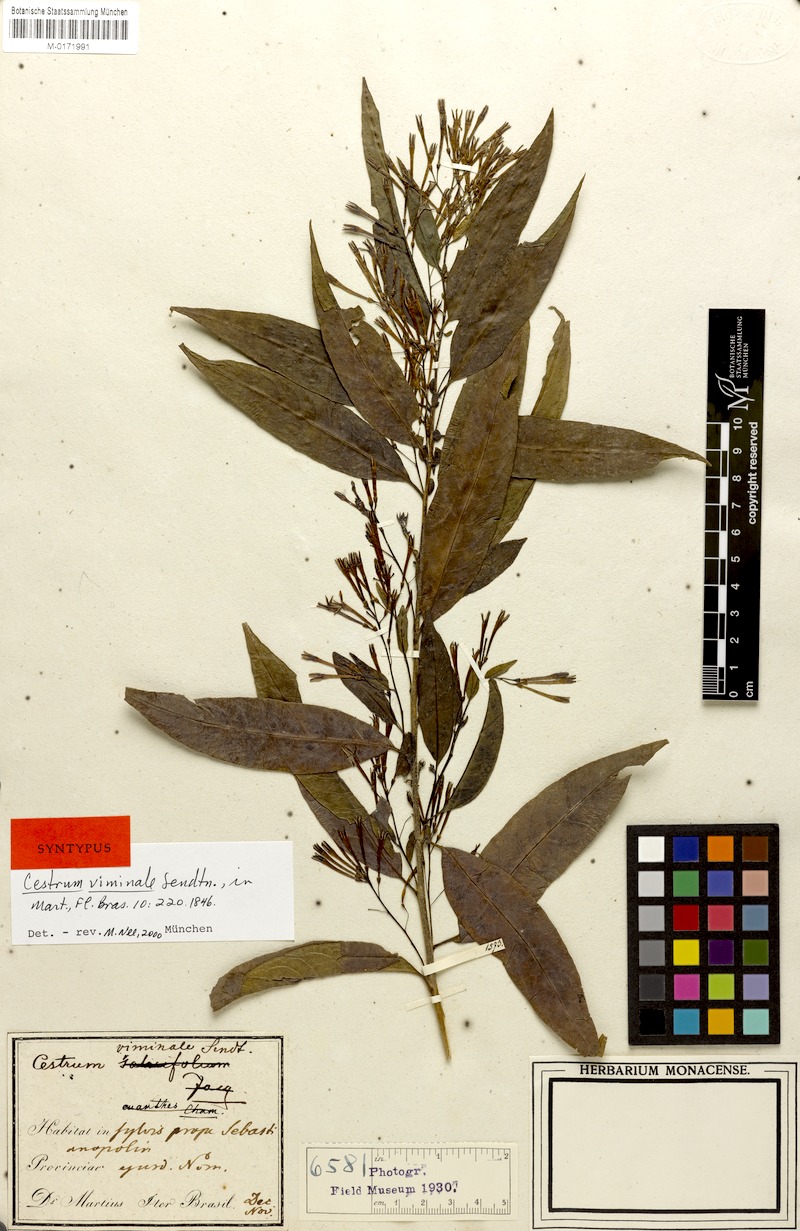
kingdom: Plantae
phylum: Tracheophyta
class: Magnoliopsida
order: Solanales
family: Solanaceae
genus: Cestrum
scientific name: Cestrum montanum
